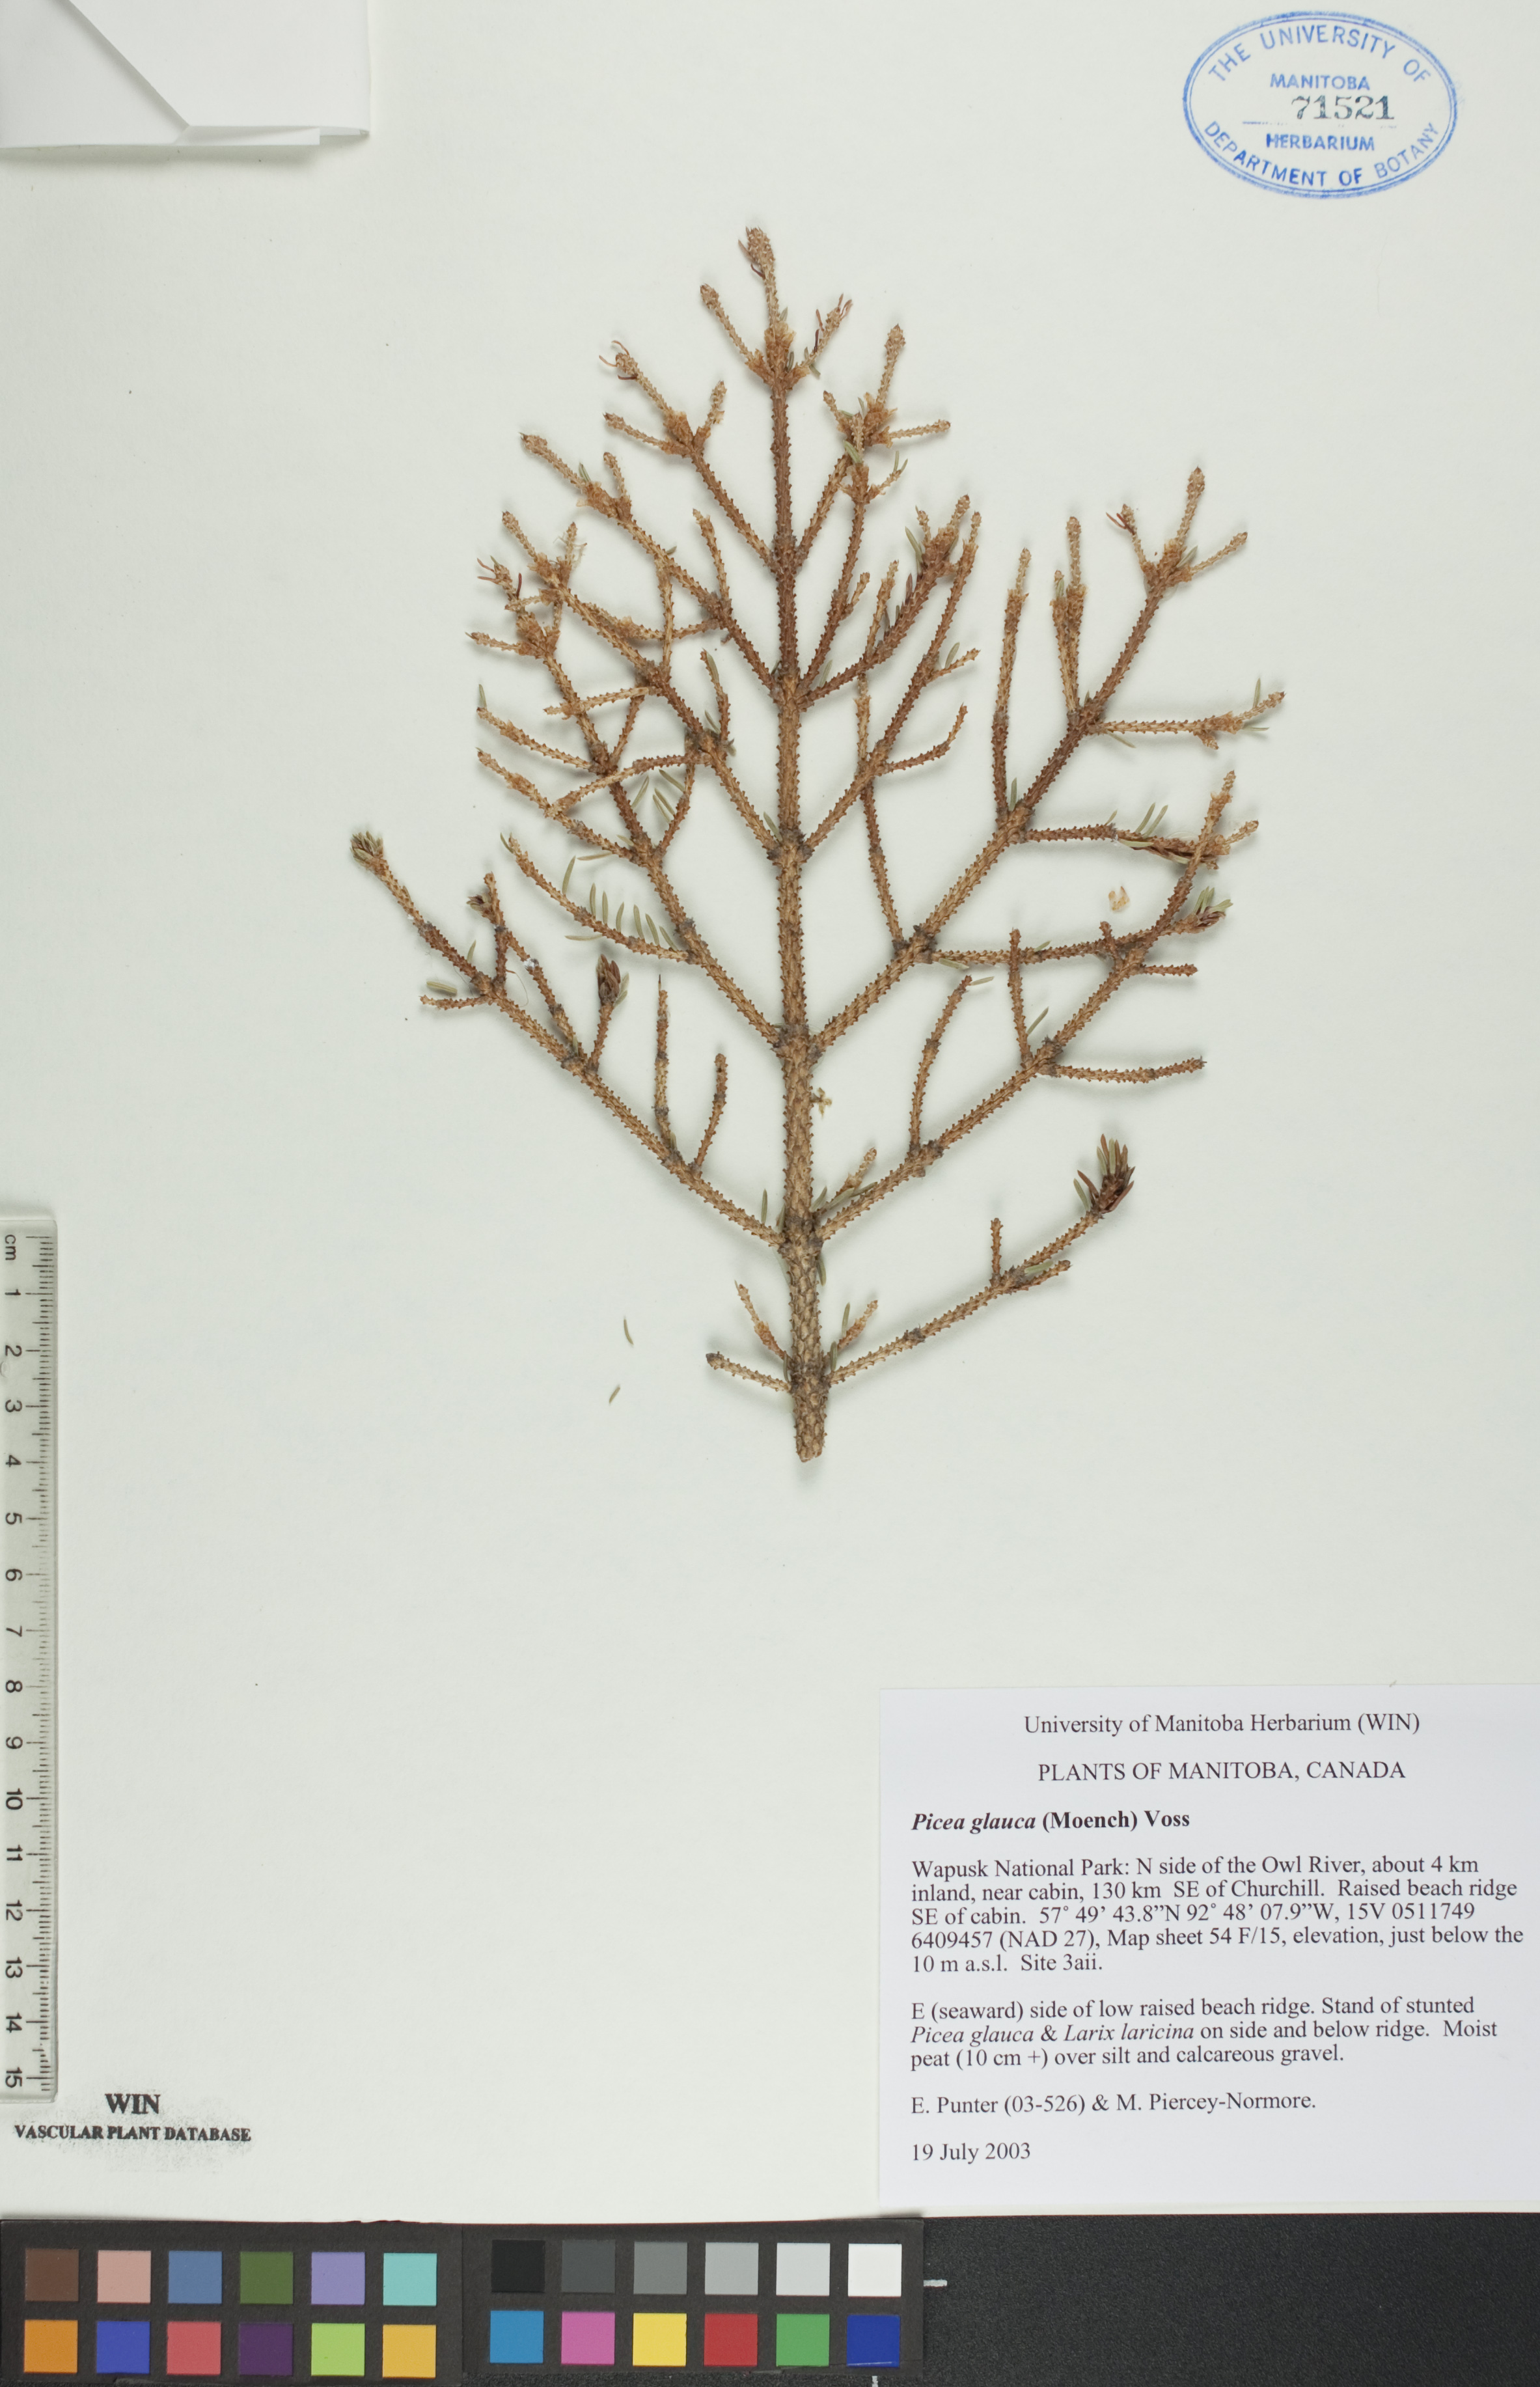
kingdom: Plantae
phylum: Tracheophyta
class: Pinopsida
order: Pinales
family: Pinaceae
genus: Picea
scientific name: Picea glauca
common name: White spruce
